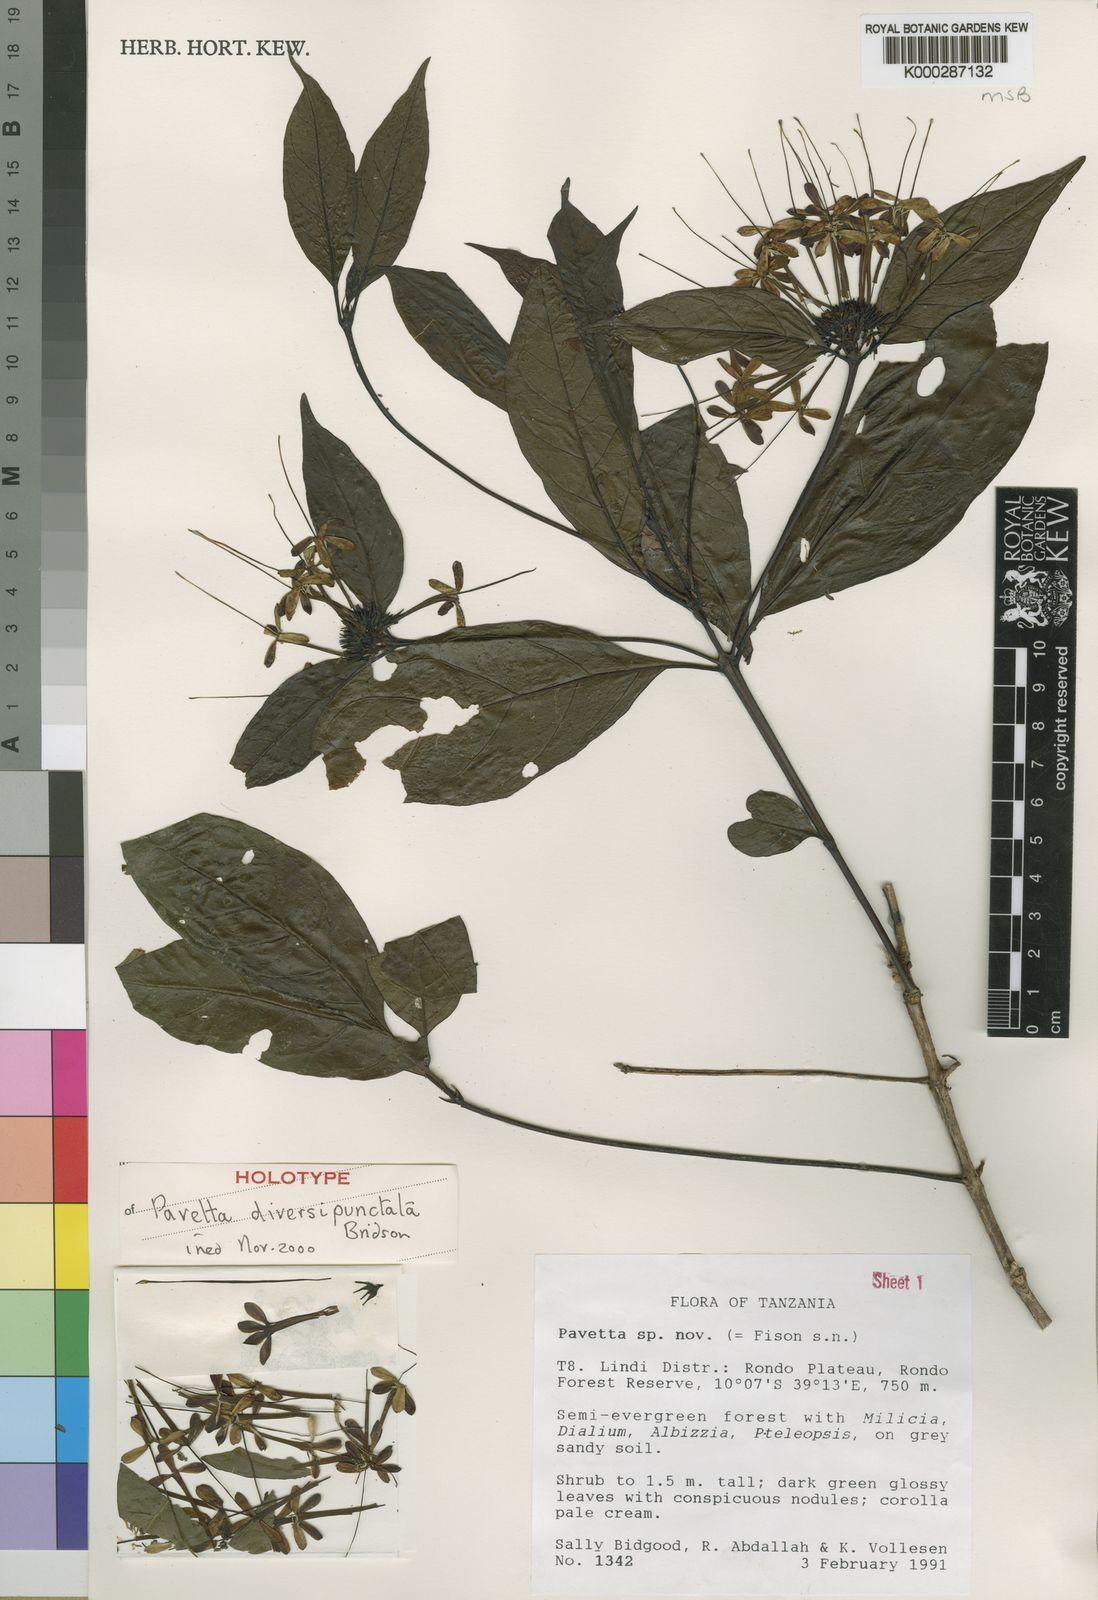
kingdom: Plantae
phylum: Tracheophyta
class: Magnoliopsida
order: Gentianales
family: Rubiaceae
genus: Pavetta
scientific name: Pavetta diversipunctata
